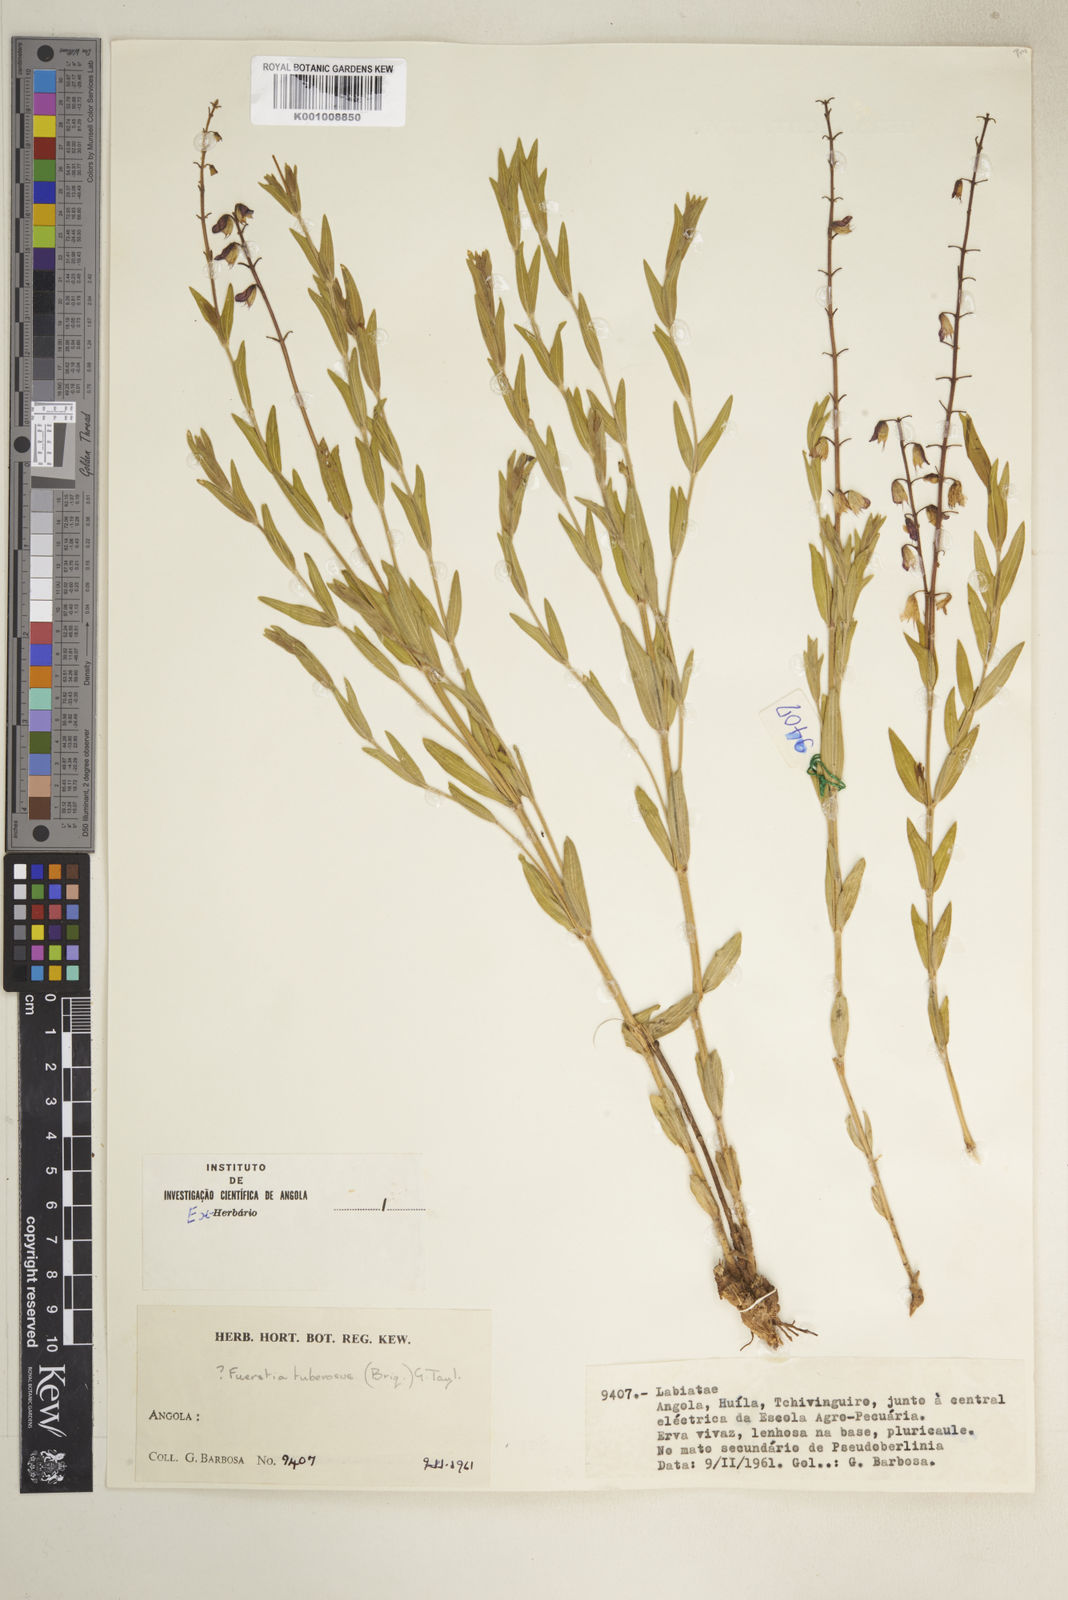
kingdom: Plantae
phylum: Tracheophyta
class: Magnoliopsida
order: Lamiales
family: Lamiaceae
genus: Fuerstia
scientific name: Fuerstia rigida
